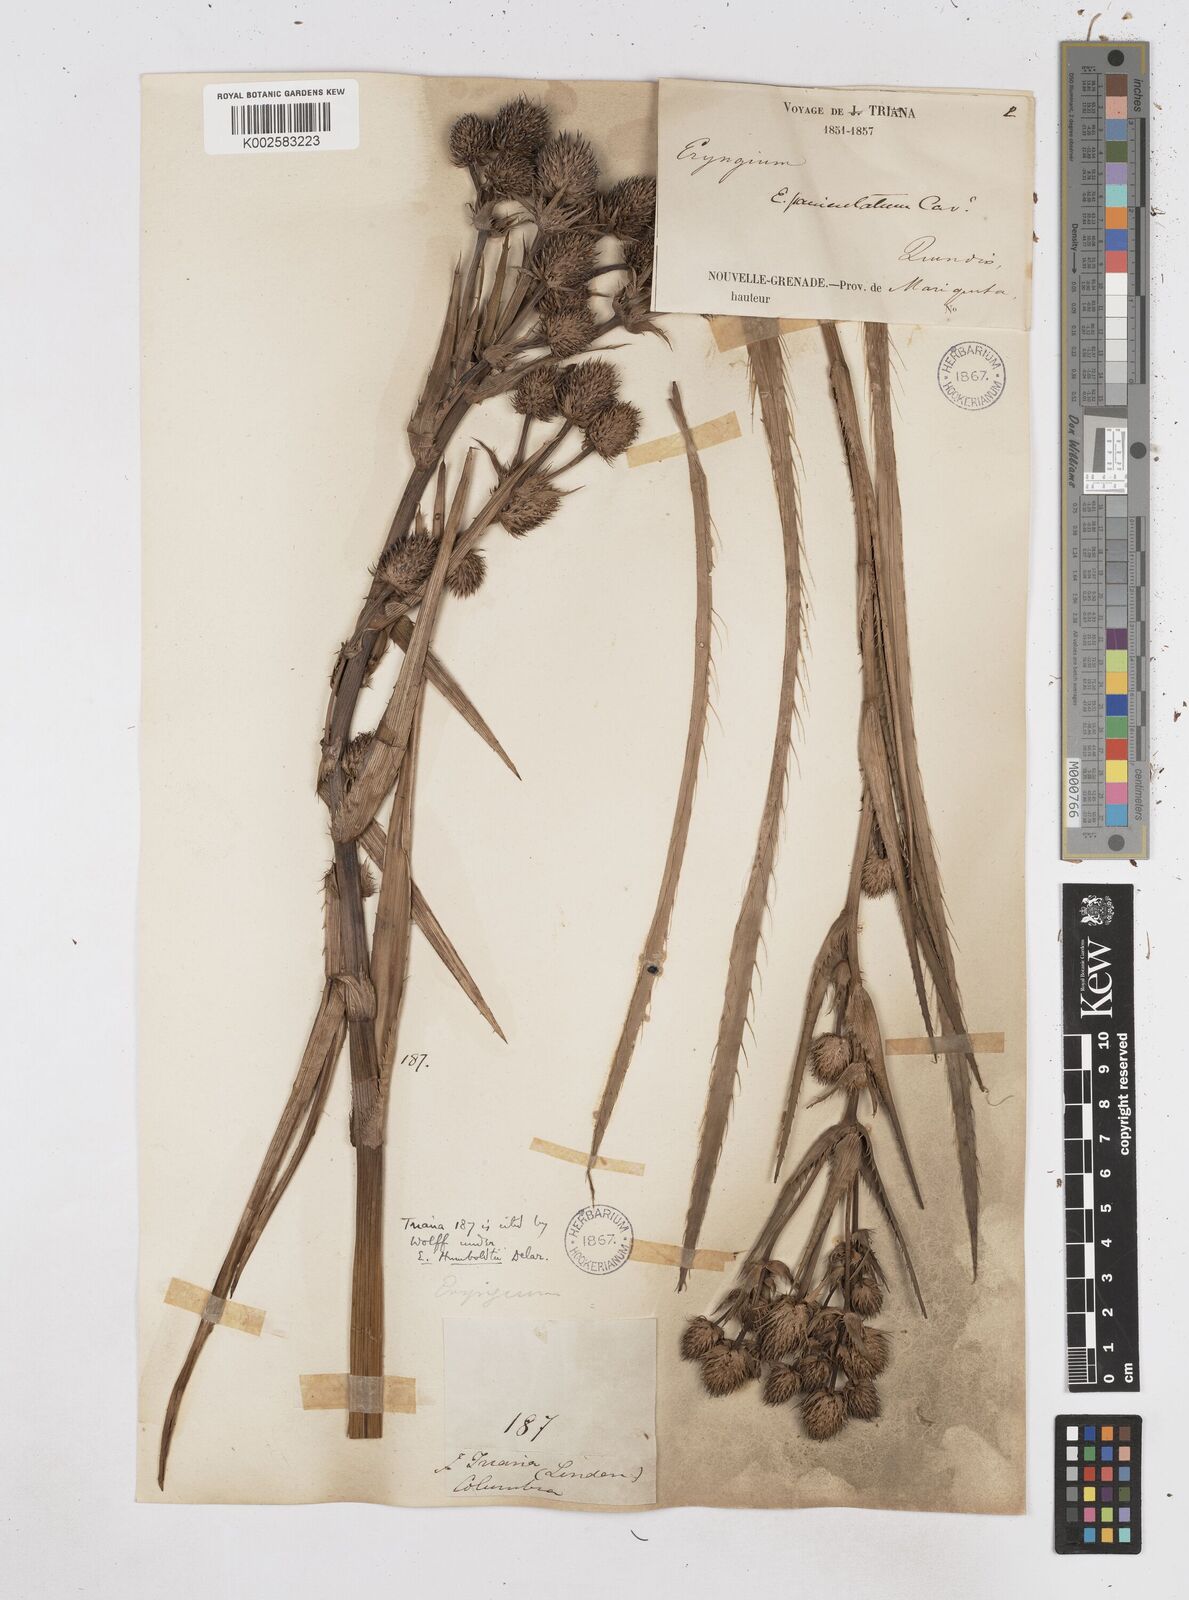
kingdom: Plantae
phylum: Tracheophyta
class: Magnoliopsida
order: Apiales
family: Apiaceae
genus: Eryngium
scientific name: Eryngium humboldtii
